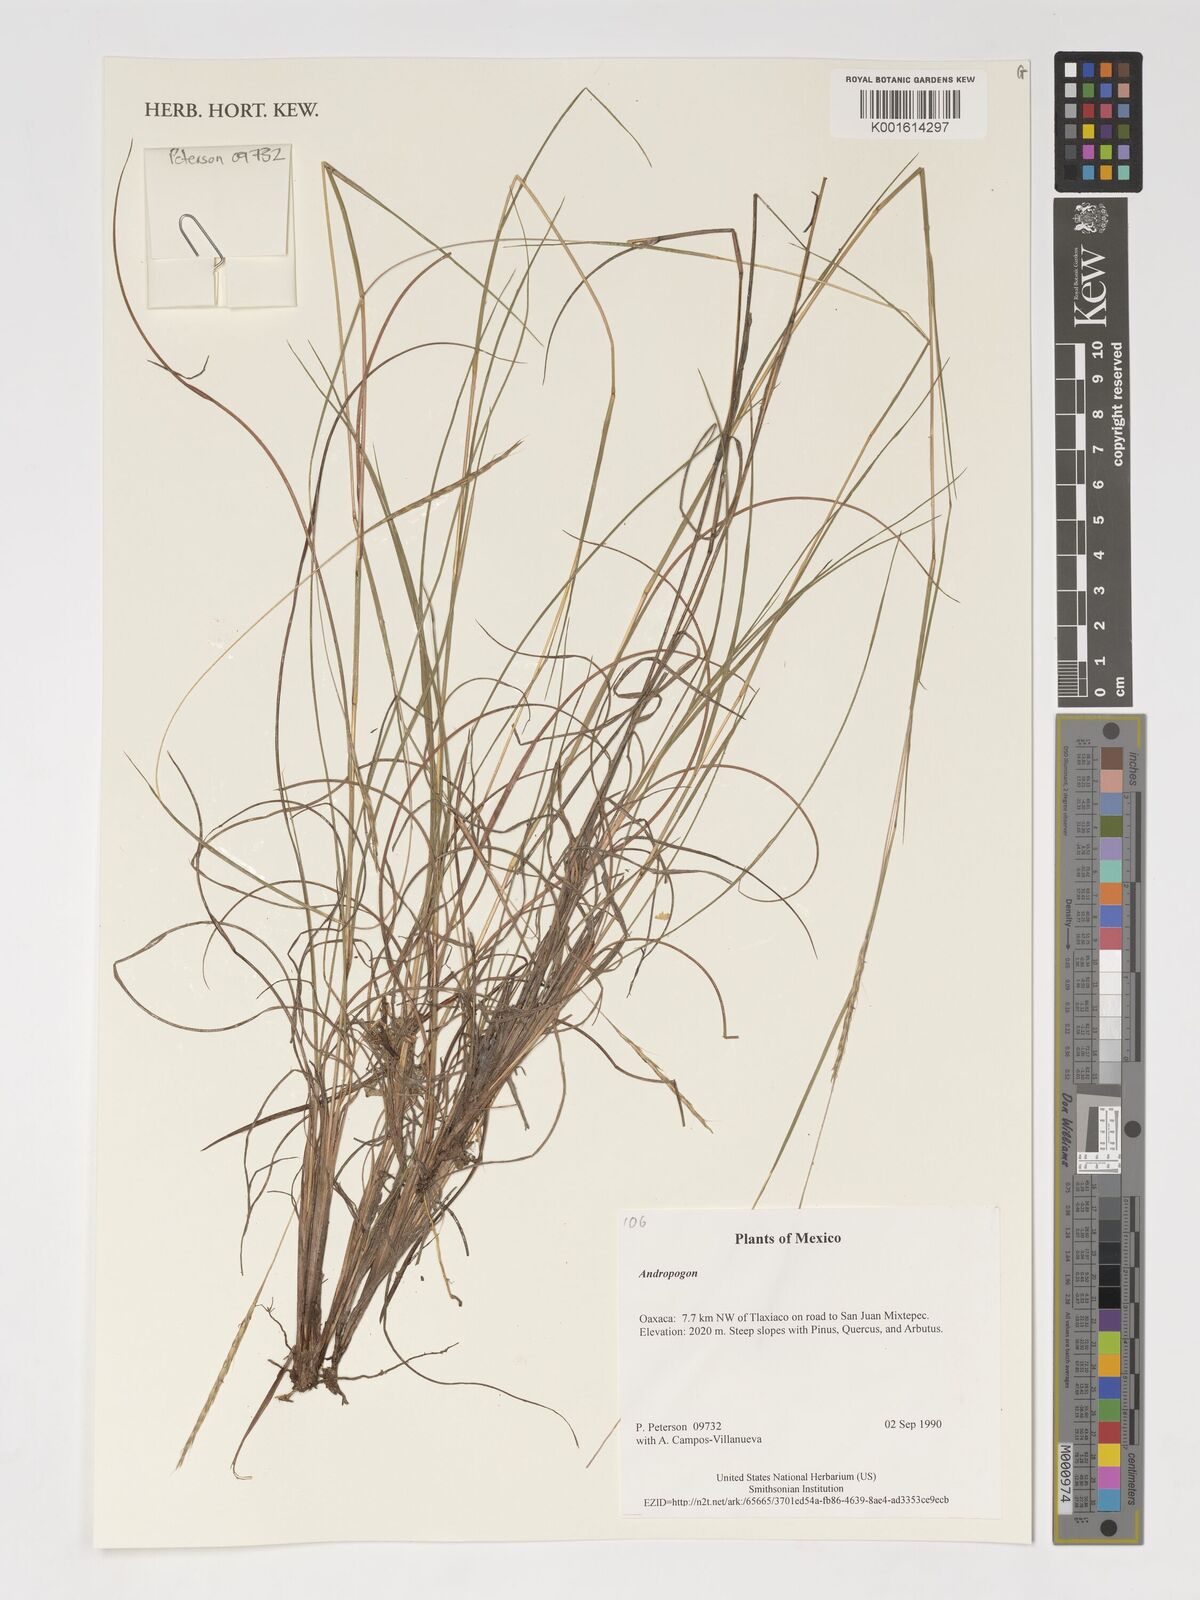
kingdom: Plantae
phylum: Tracheophyta
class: Liliopsida
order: Poales
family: Poaceae
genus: Andropogon
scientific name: Andropogon
